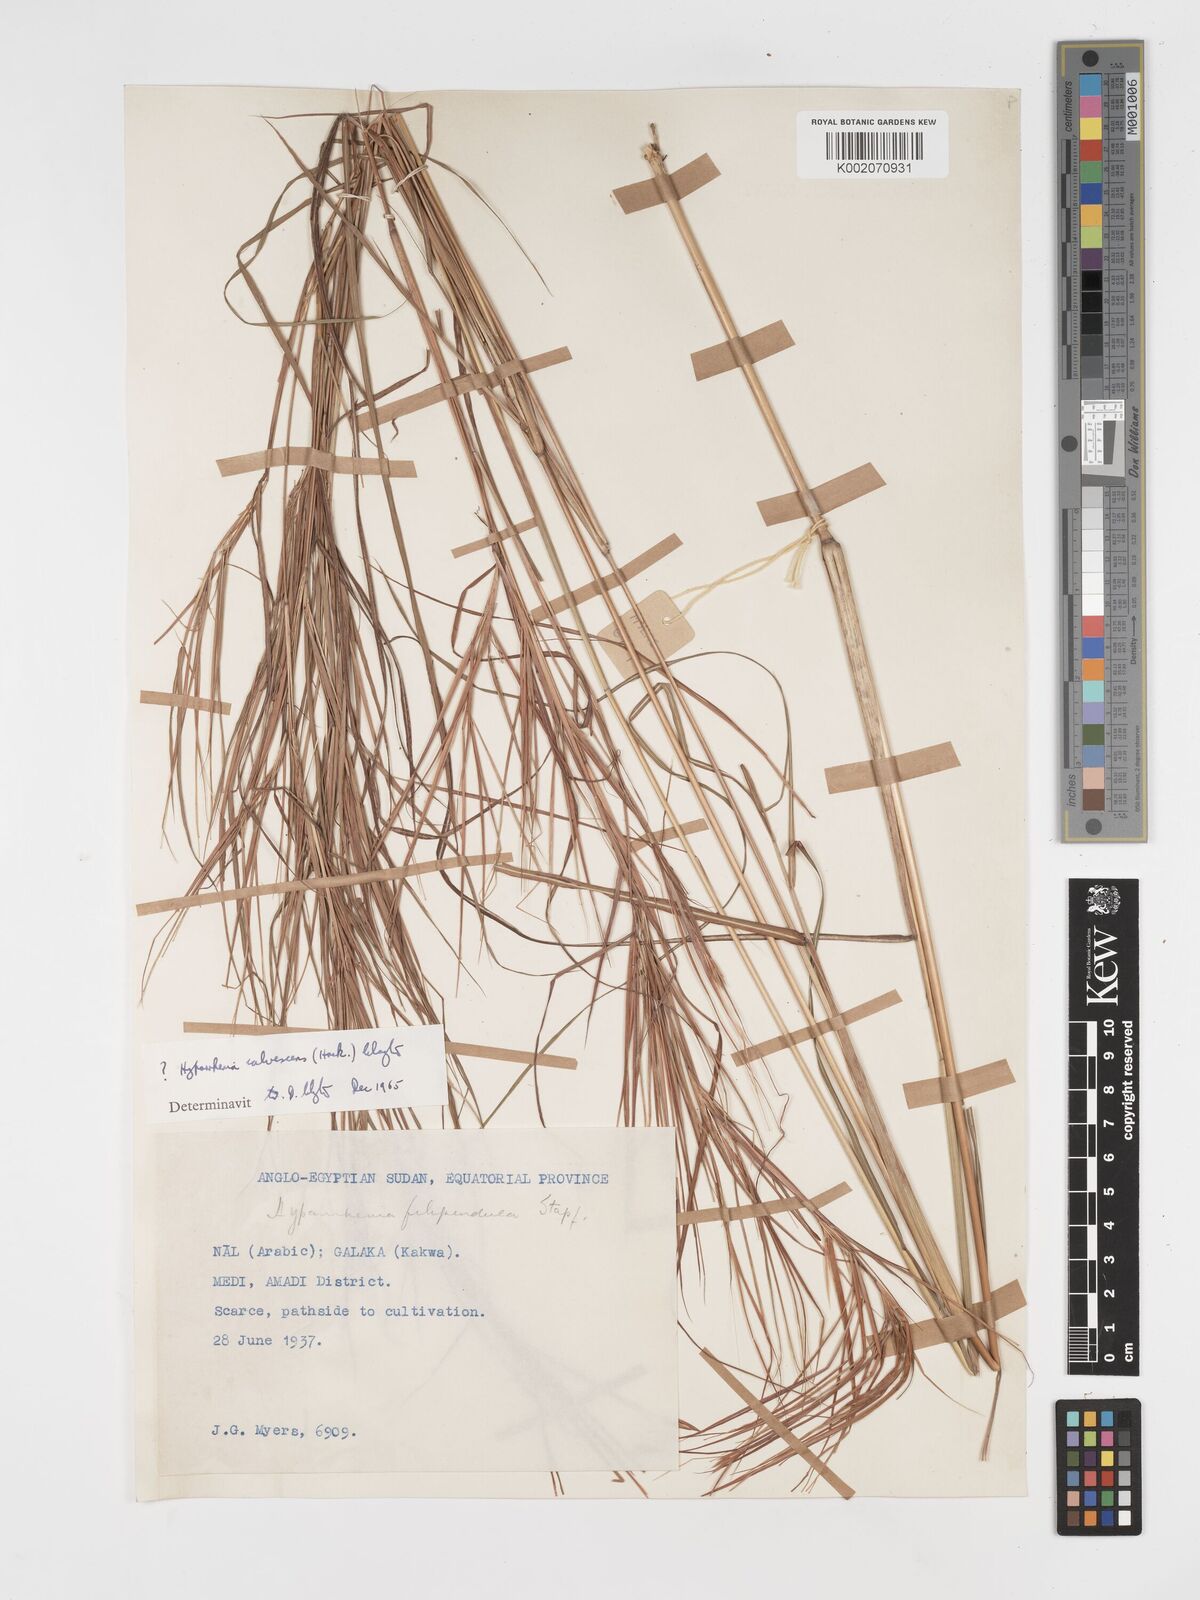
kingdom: Plantae
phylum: Tracheophyta
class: Liliopsida
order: Poales
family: Poaceae
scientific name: Poaceae
